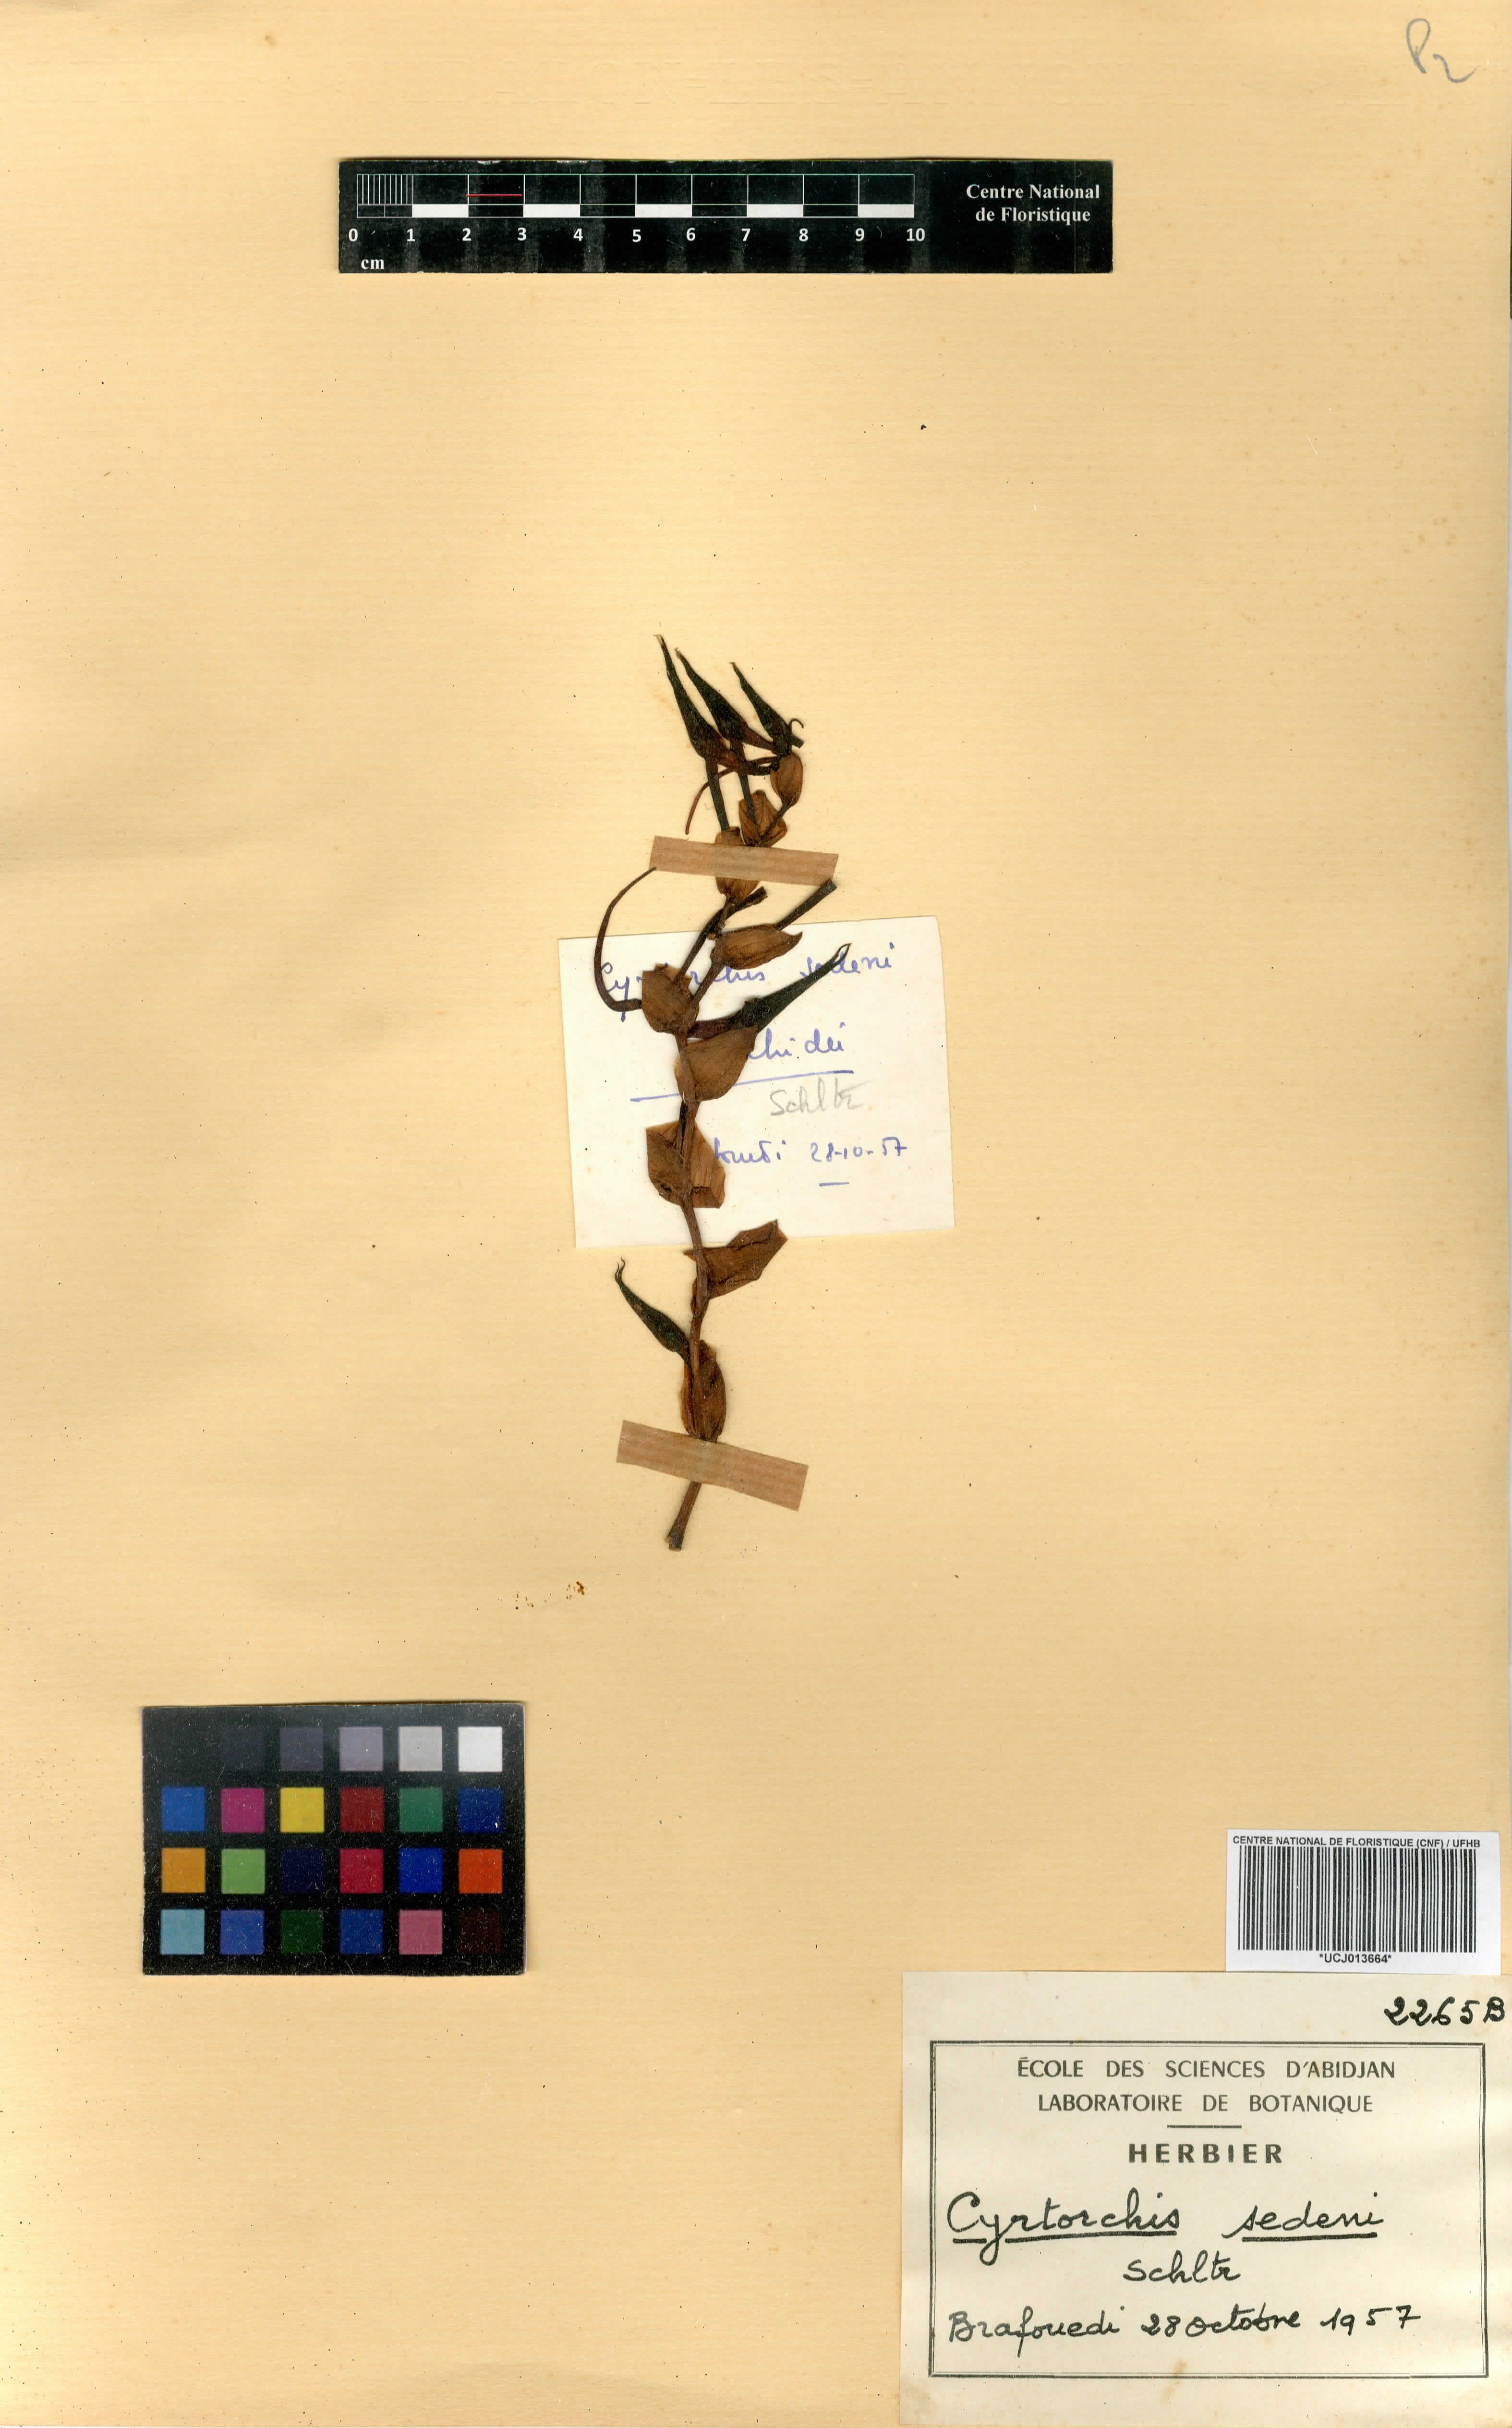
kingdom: Plantae
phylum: Tracheophyta
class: Liliopsida
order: Asparagales
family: Orchidaceae
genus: Cyrtorchis
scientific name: Cyrtorchis arcuata
